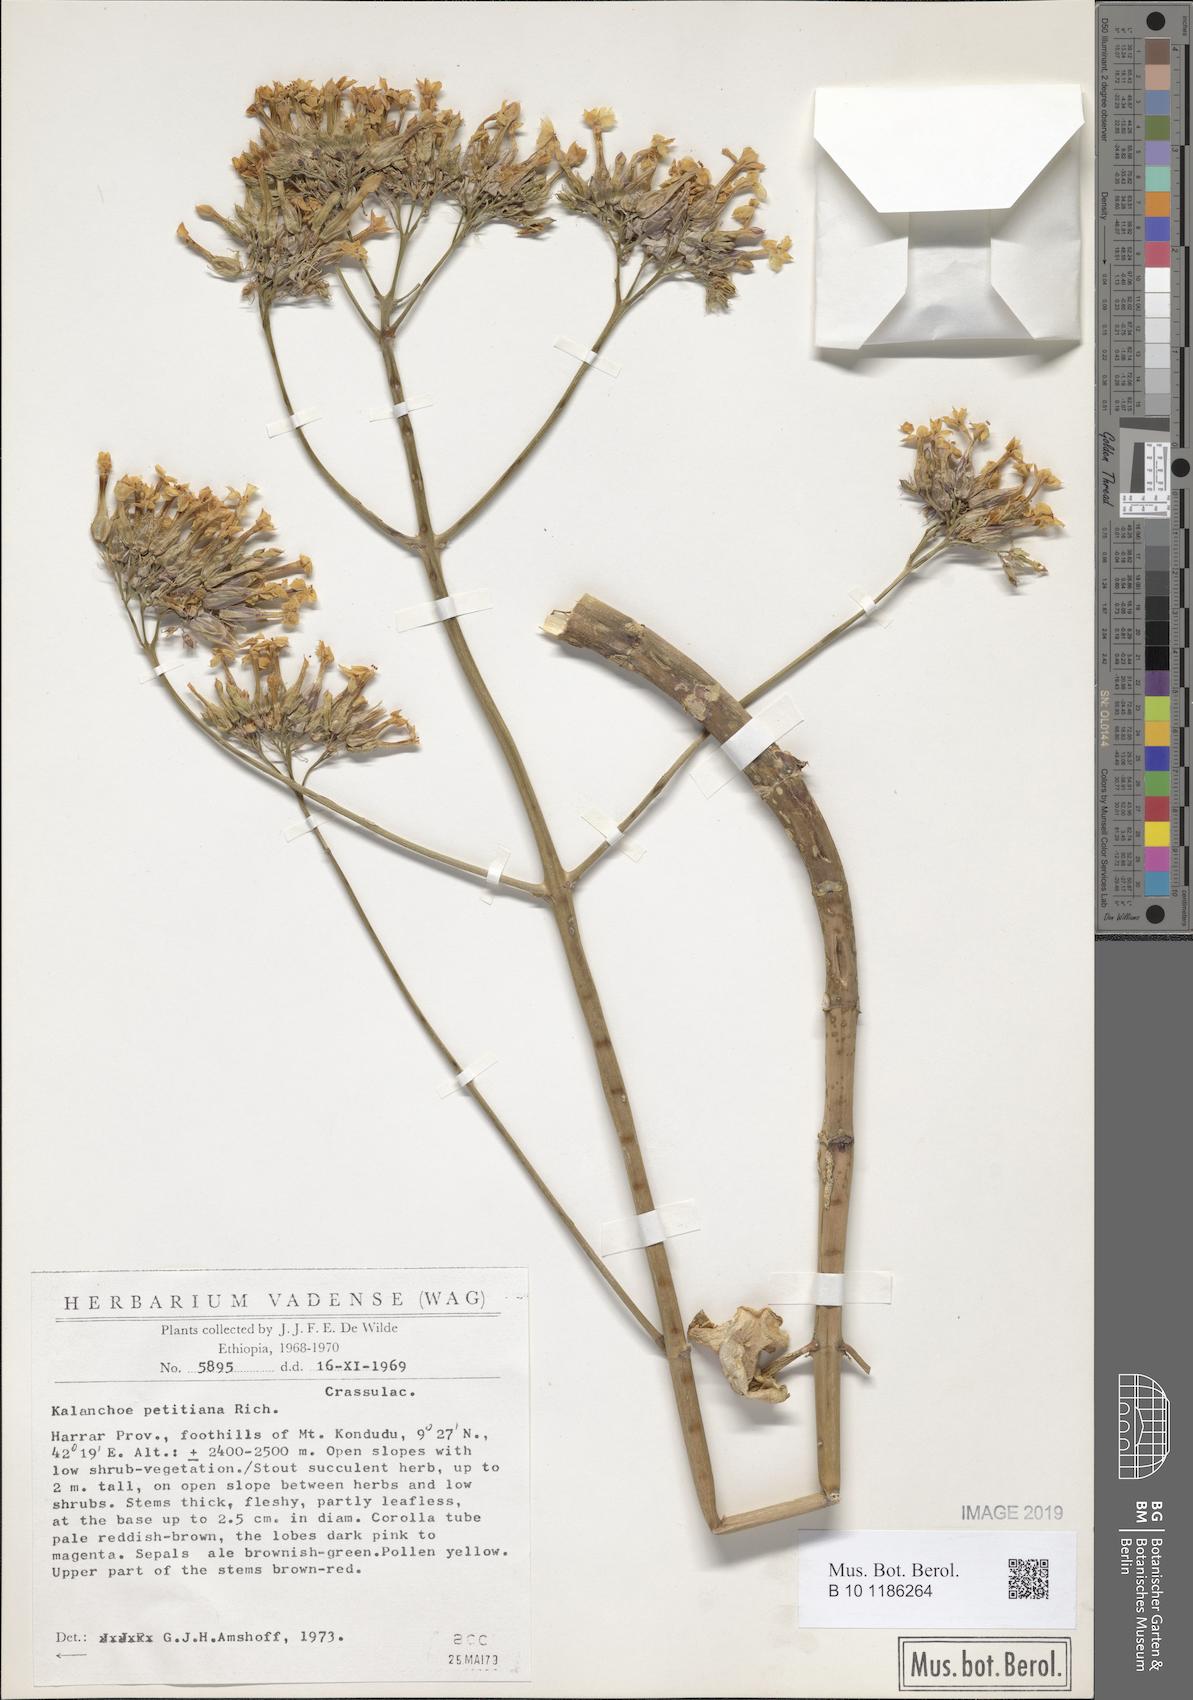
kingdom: Plantae
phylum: Tracheophyta
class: Magnoliopsida
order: Saxifragales
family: Crassulaceae
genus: Kalanchoe
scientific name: Kalanchoe petitiana
